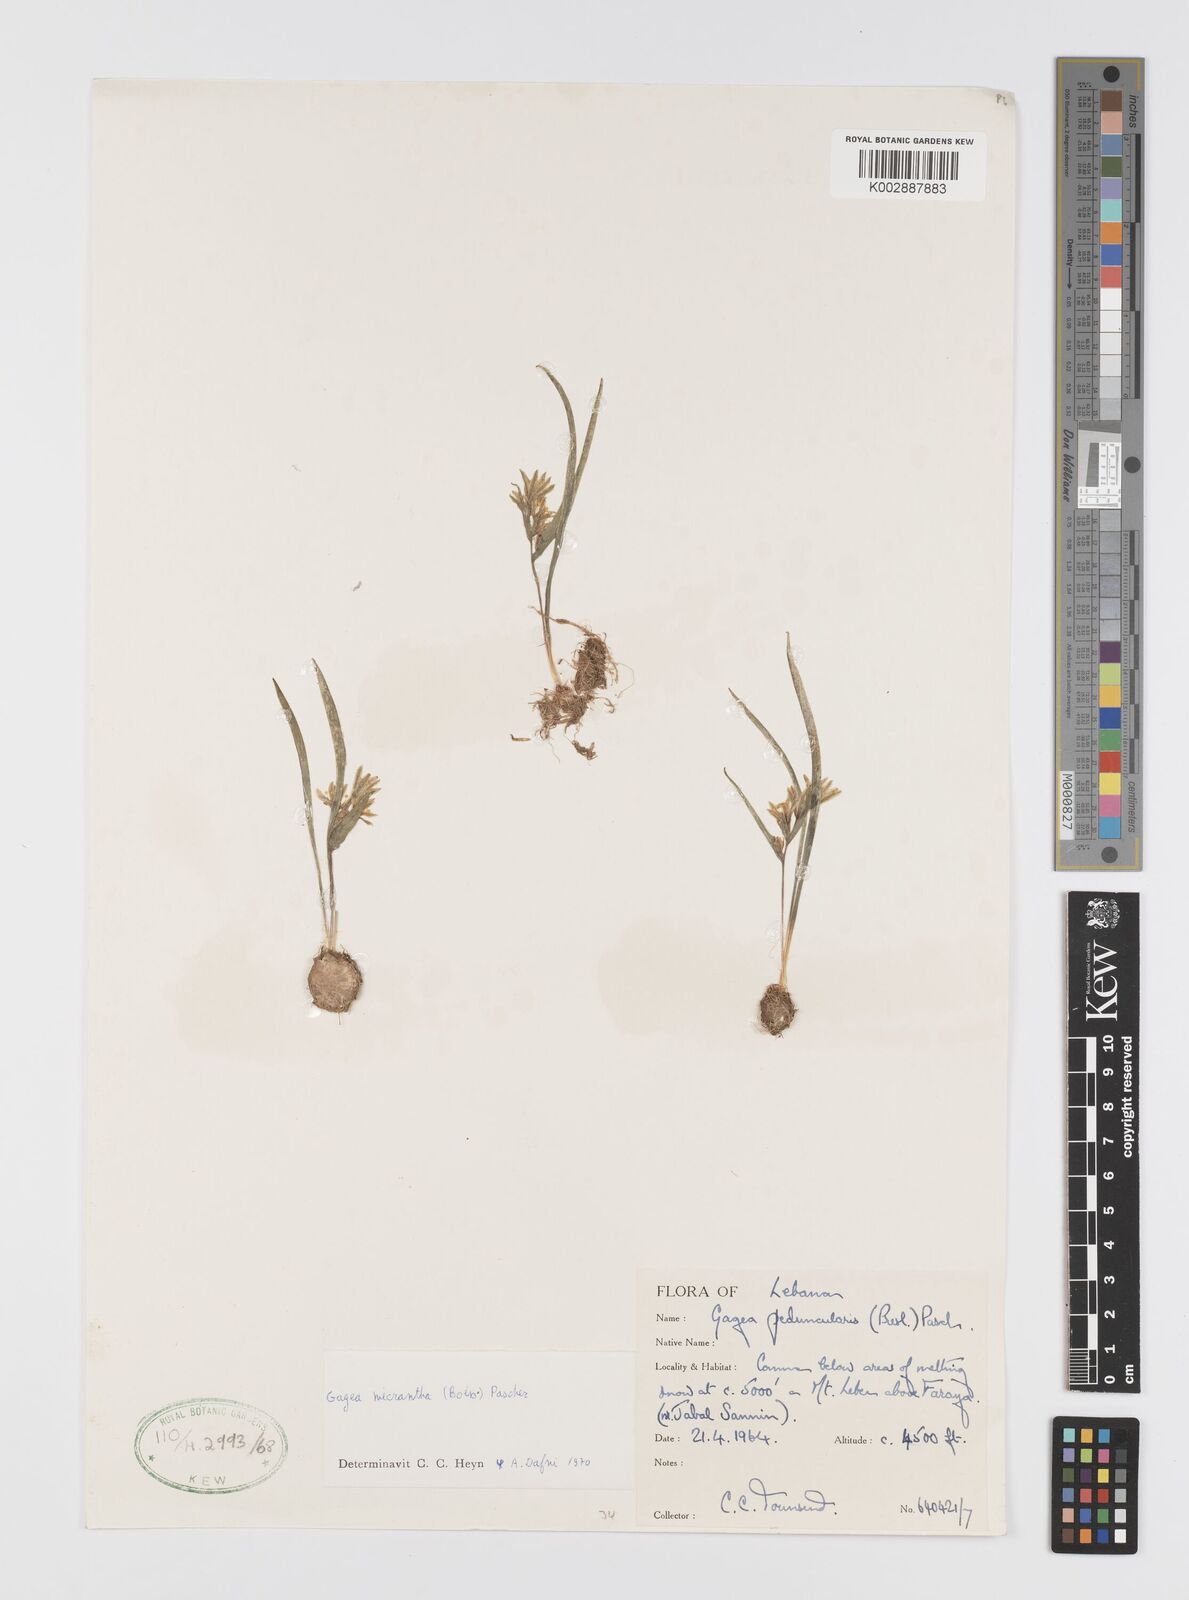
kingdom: Plantae
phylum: Tracheophyta
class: Liliopsida
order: Liliales
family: Liliaceae
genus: Gagea
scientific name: Gagea micrantha
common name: Small-flowered gagea
